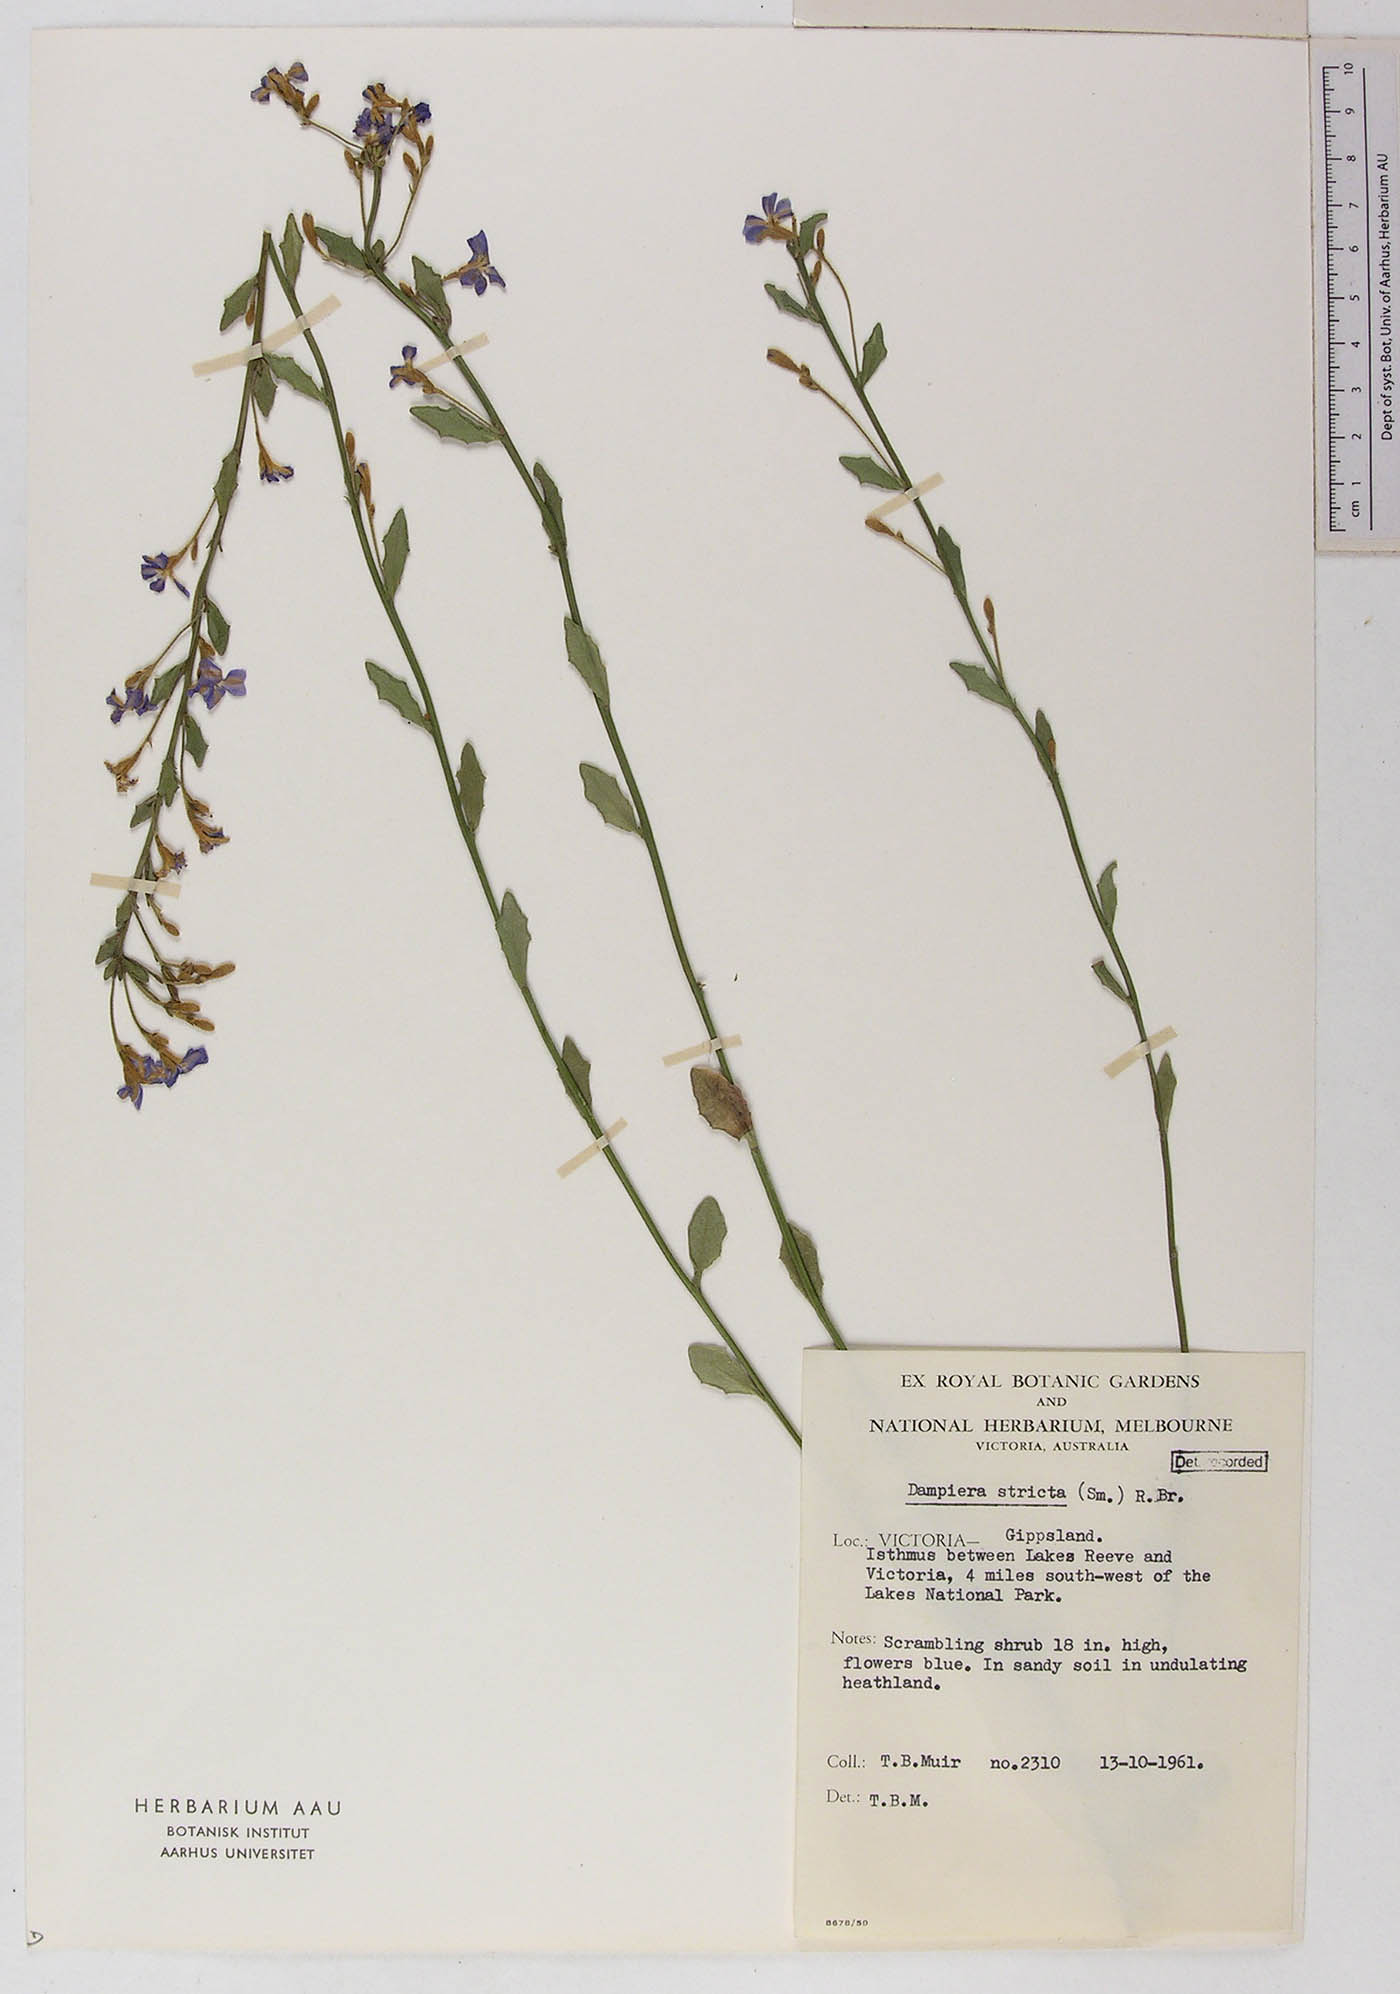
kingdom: Plantae
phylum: Tracheophyta
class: Magnoliopsida
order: Asterales
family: Goodeniaceae
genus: Dampiera
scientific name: Dampiera stricta
